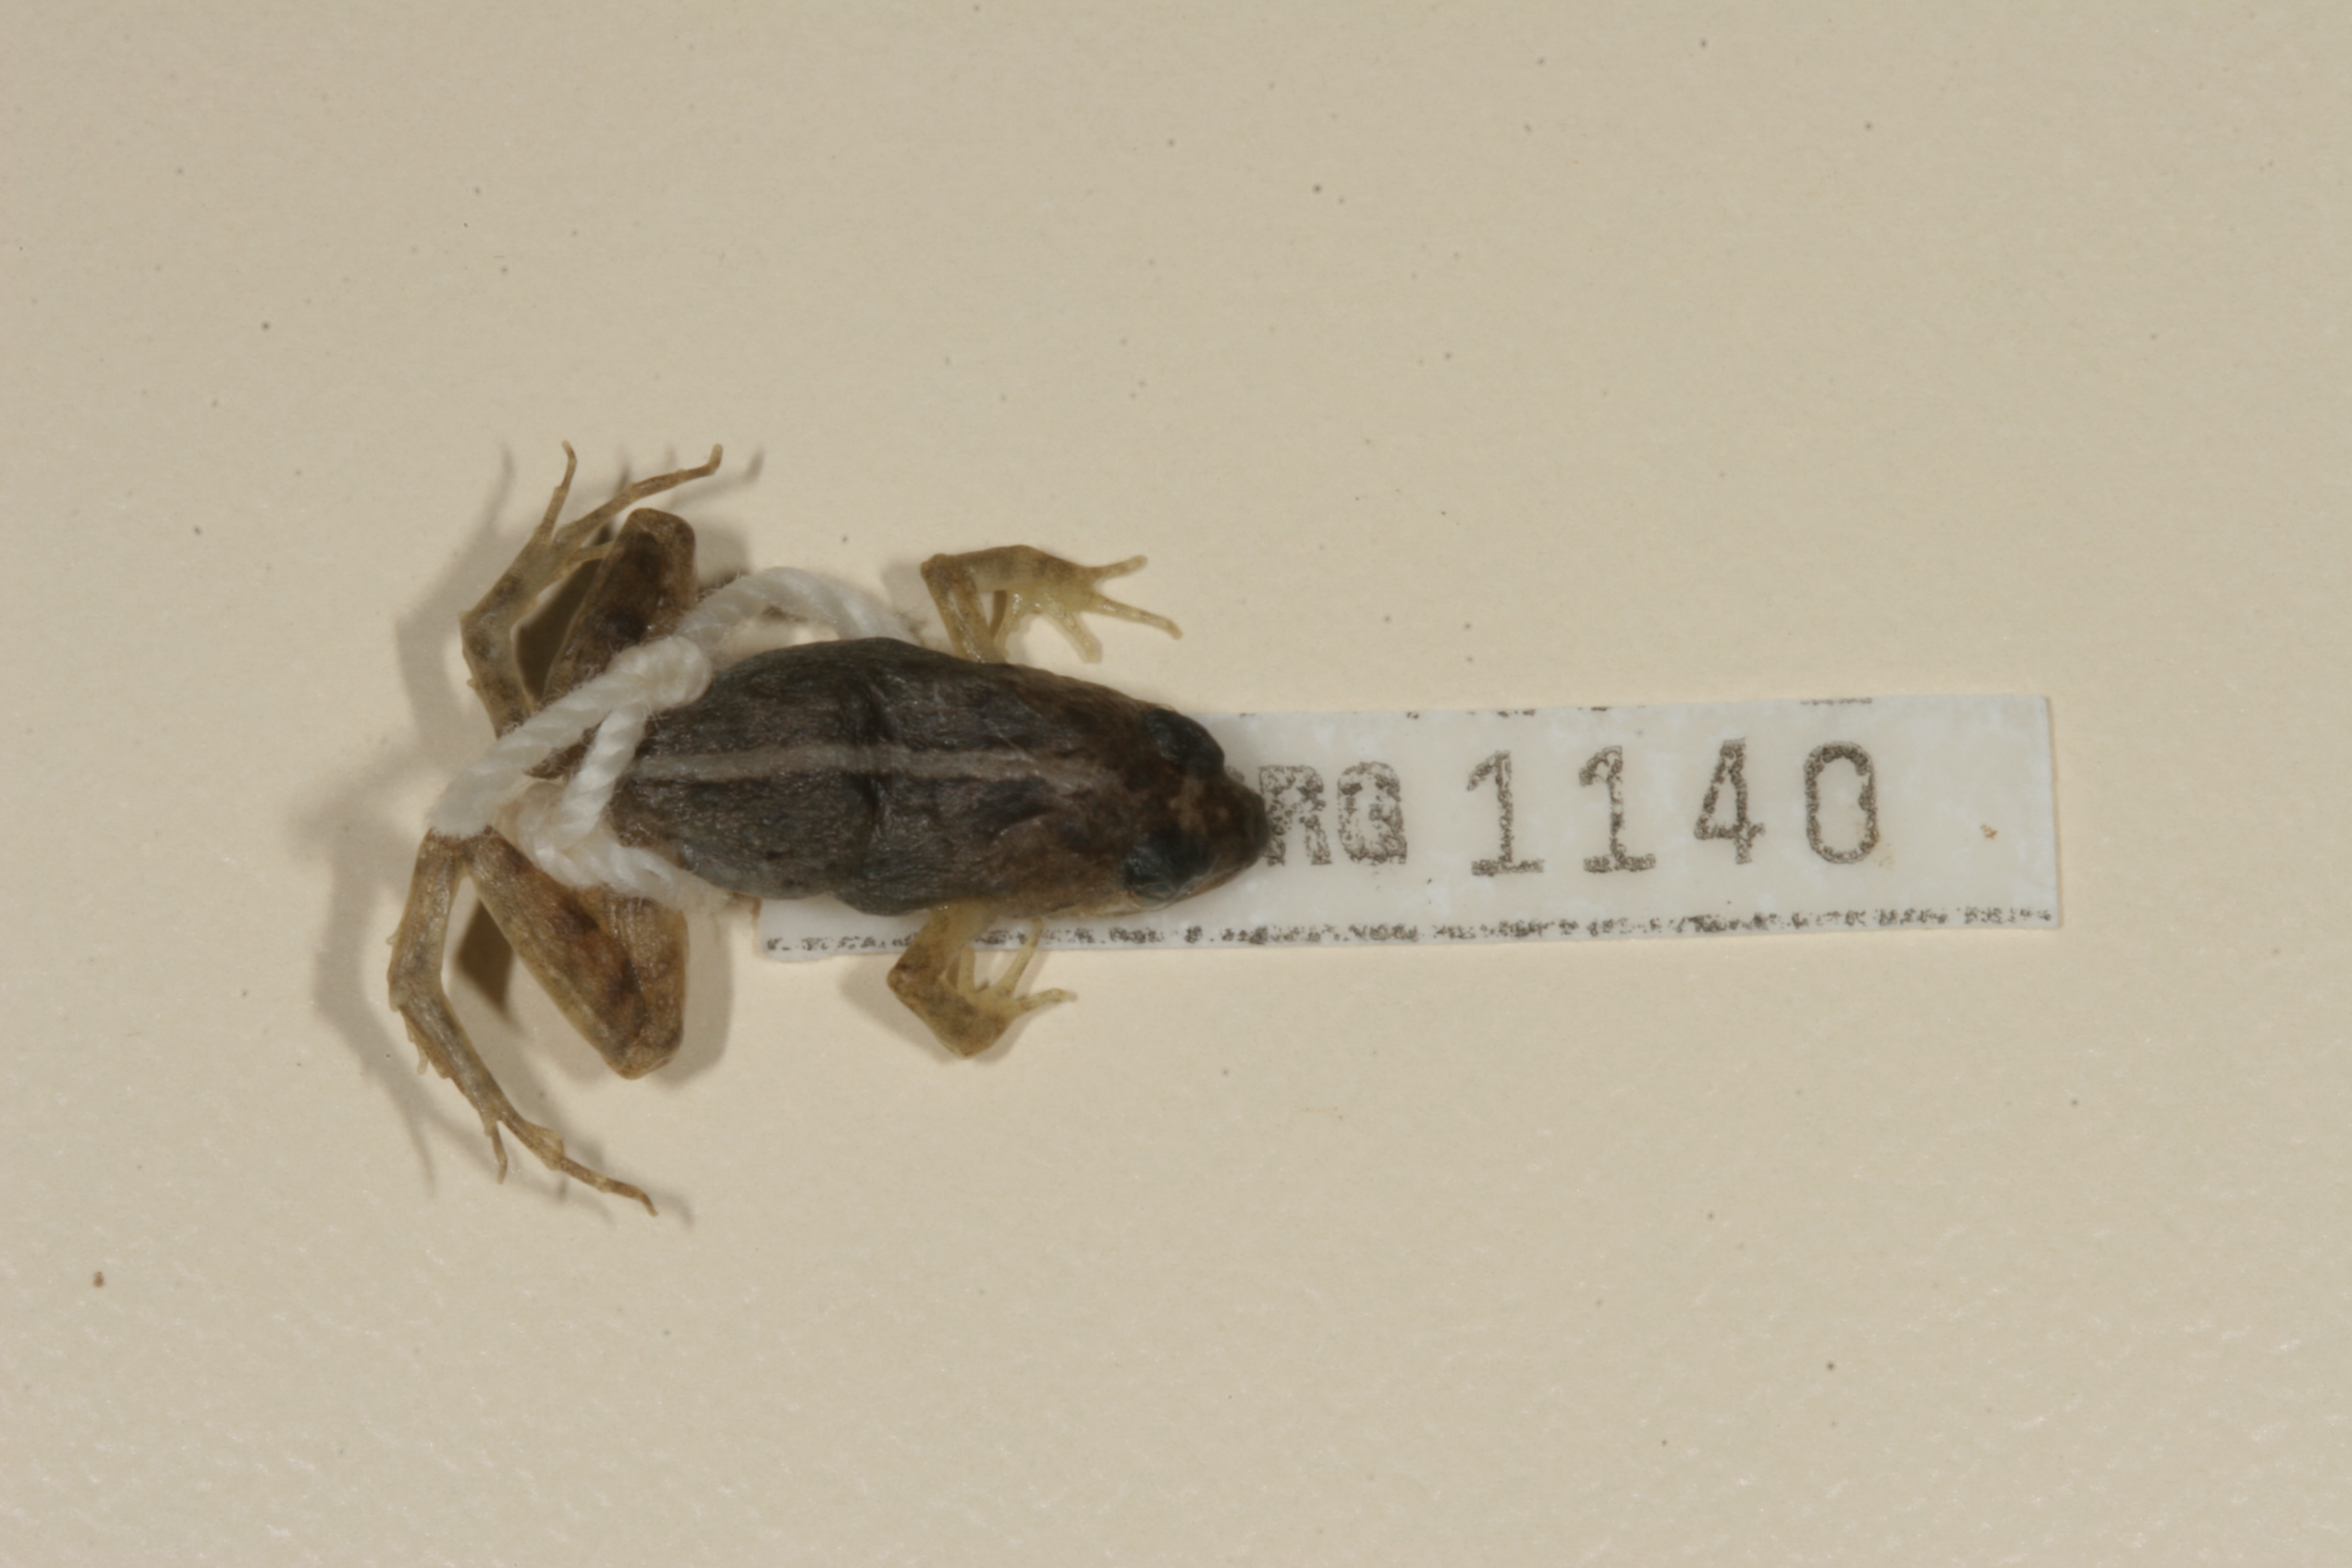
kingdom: Animalia
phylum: Chordata
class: Amphibia
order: Anura
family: Phrynobatrachidae
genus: Phrynobatrachus
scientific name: Phrynobatrachus mababiensis
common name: Dwarf puddle frog
